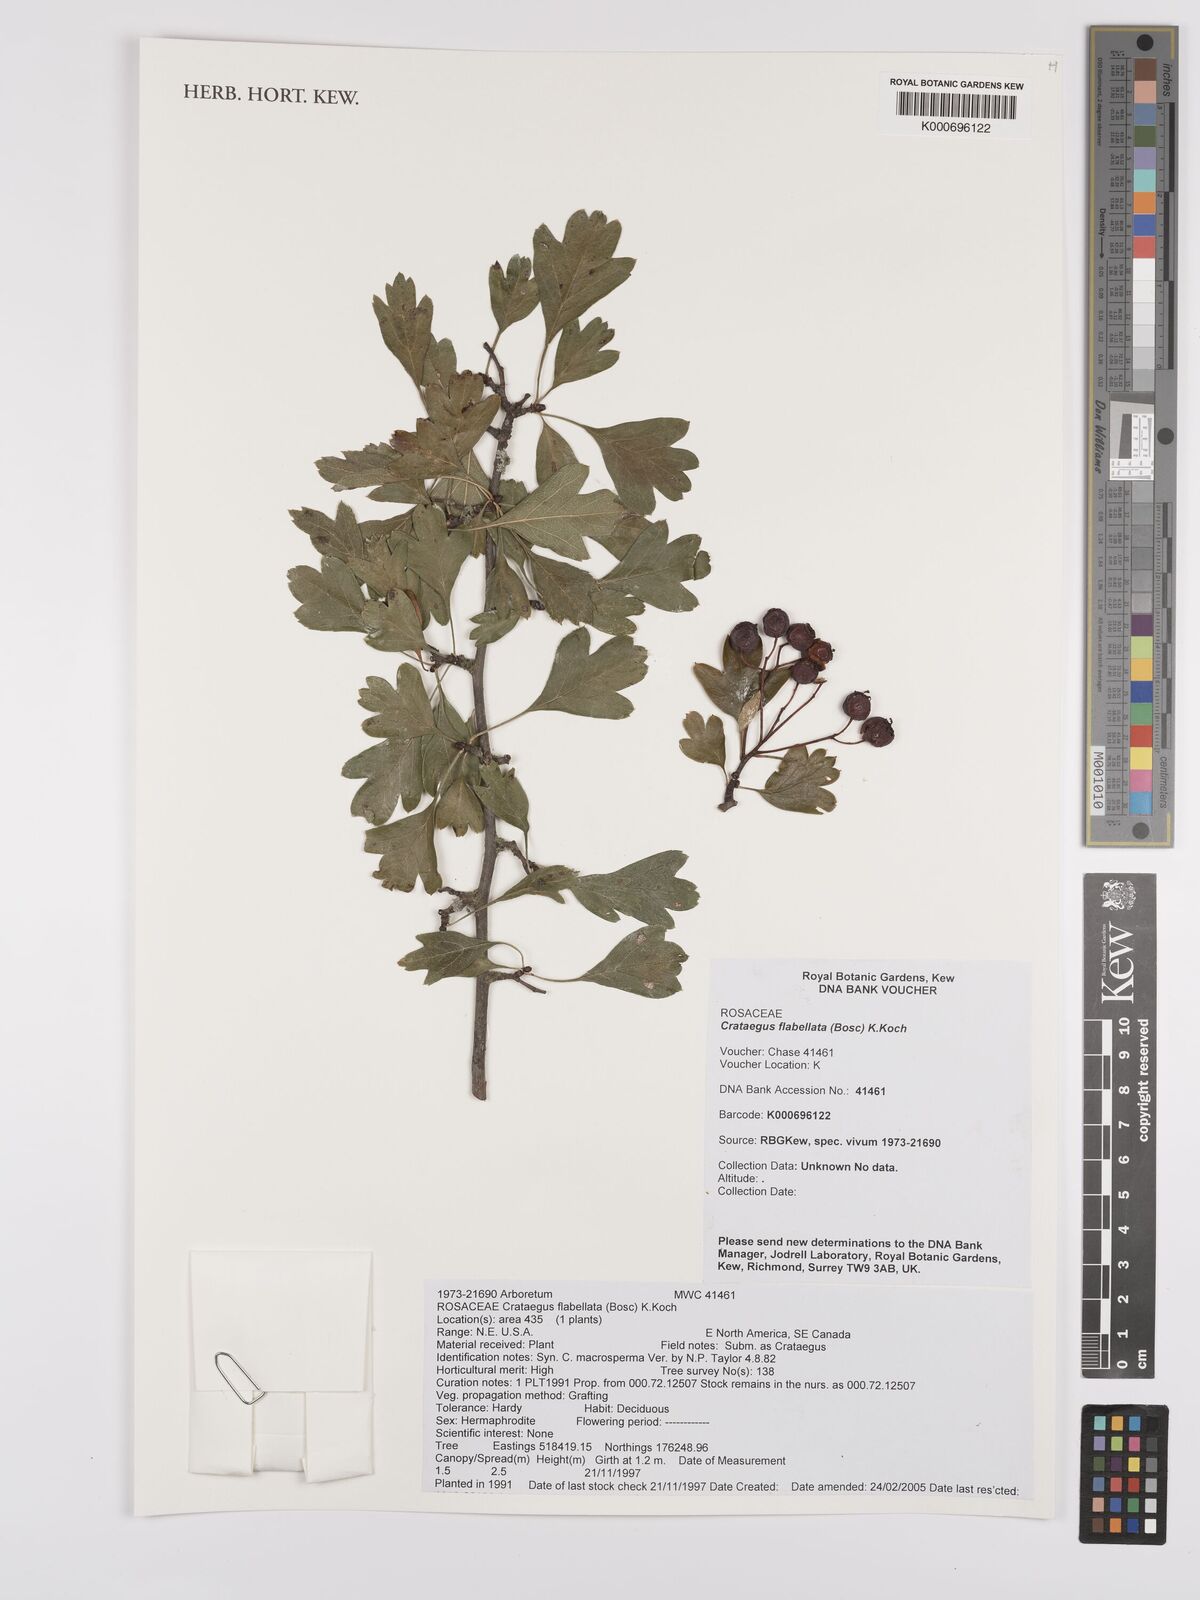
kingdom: Plantae
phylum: Tracheophyta
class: Magnoliopsida
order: Rosales
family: Rosaceae
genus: Crataegus
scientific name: Crataegus flabellata
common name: Bosc's hawthorn
